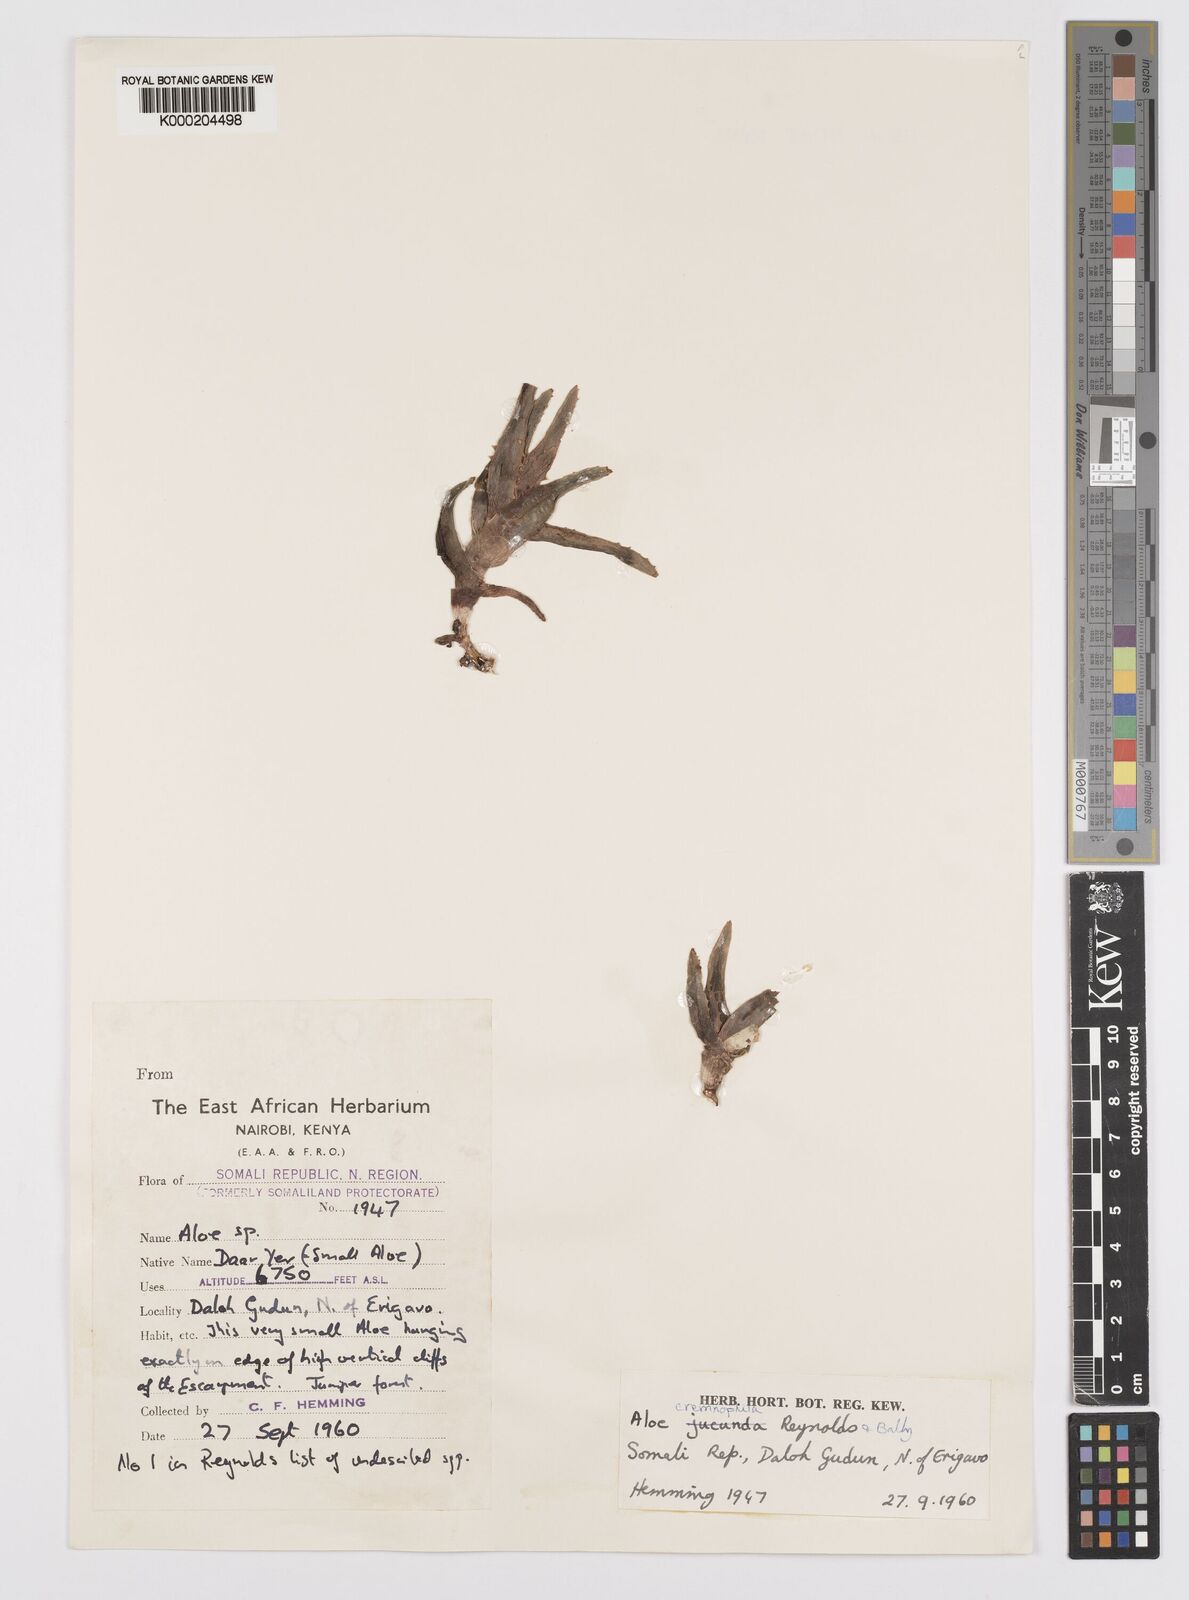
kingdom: Plantae
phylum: Tracheophyta
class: Liliopsida
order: Asparagales
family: Asphodelaceae
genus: Aloe
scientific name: Aloe cremnophila
